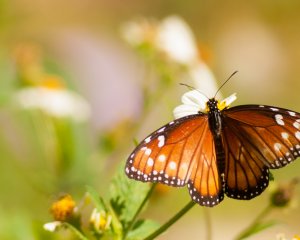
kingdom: Animalia
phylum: Arthropoda
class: Insecta
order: Lepidoptera
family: Nymphalidae
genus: Danaus
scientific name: Danaus gilippus
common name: Queen
